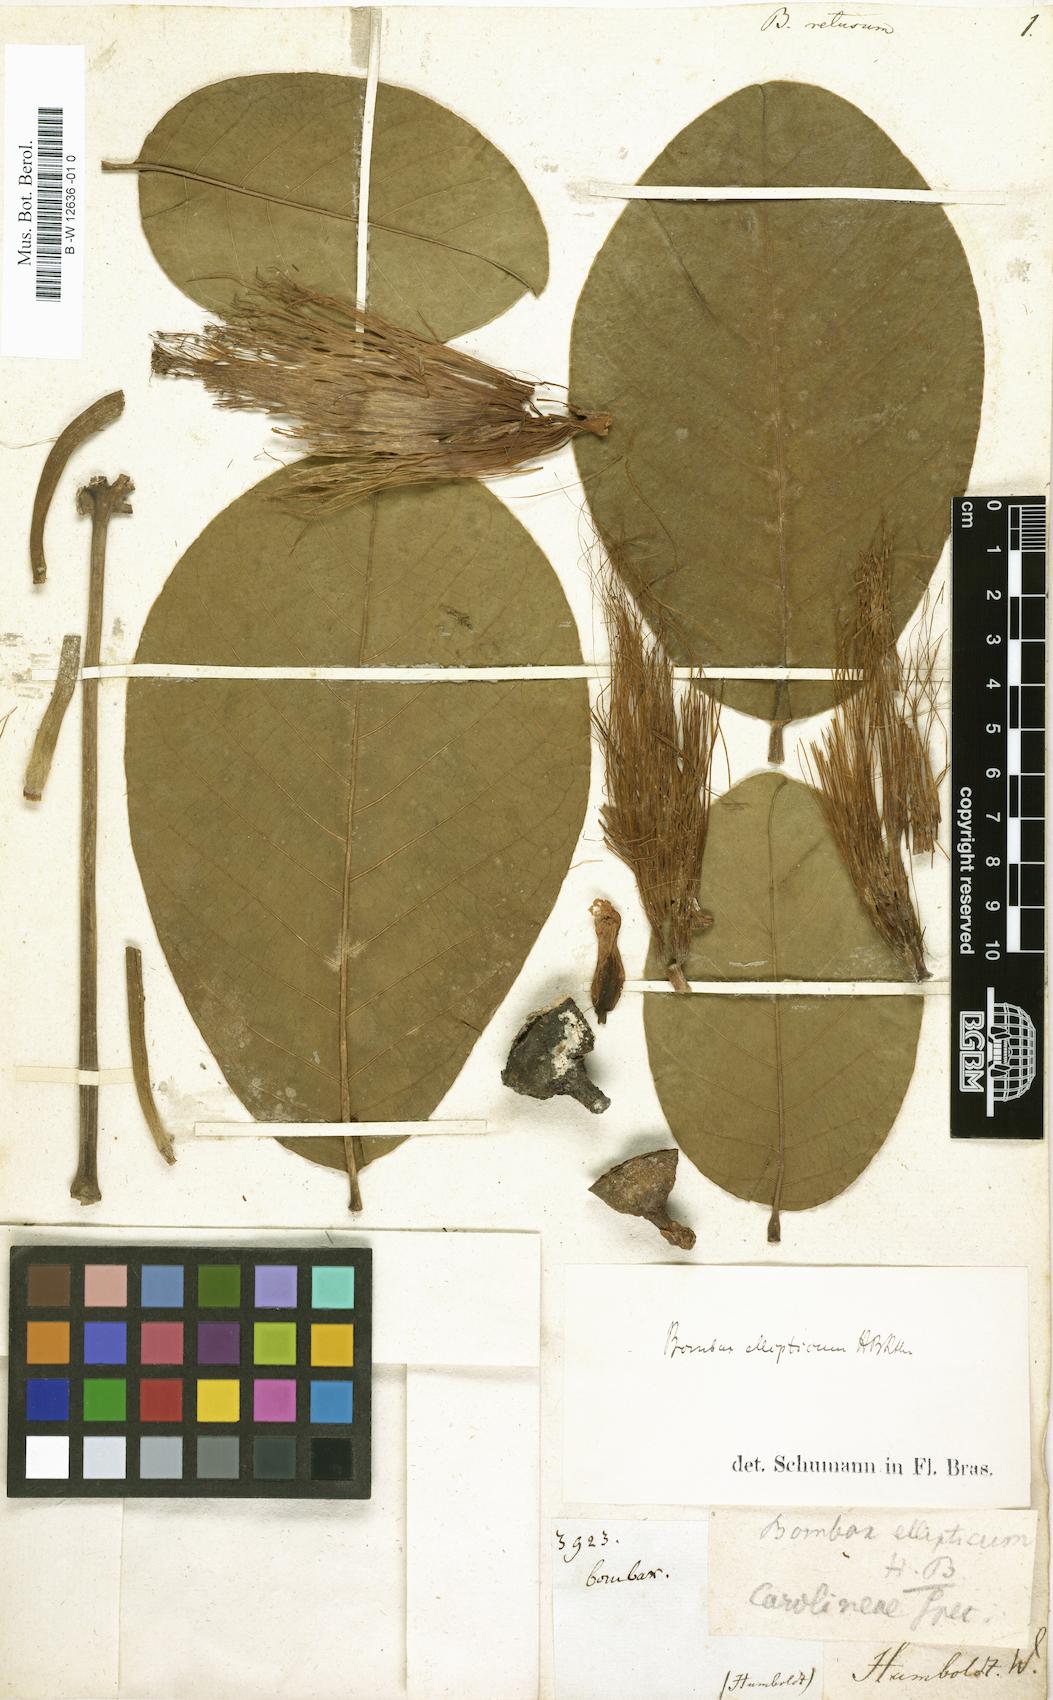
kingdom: Plantae
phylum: Tracheophyta
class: Magnoliopsida
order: Malvales
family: Malvaceae
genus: Pachira
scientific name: Pachira retusa
